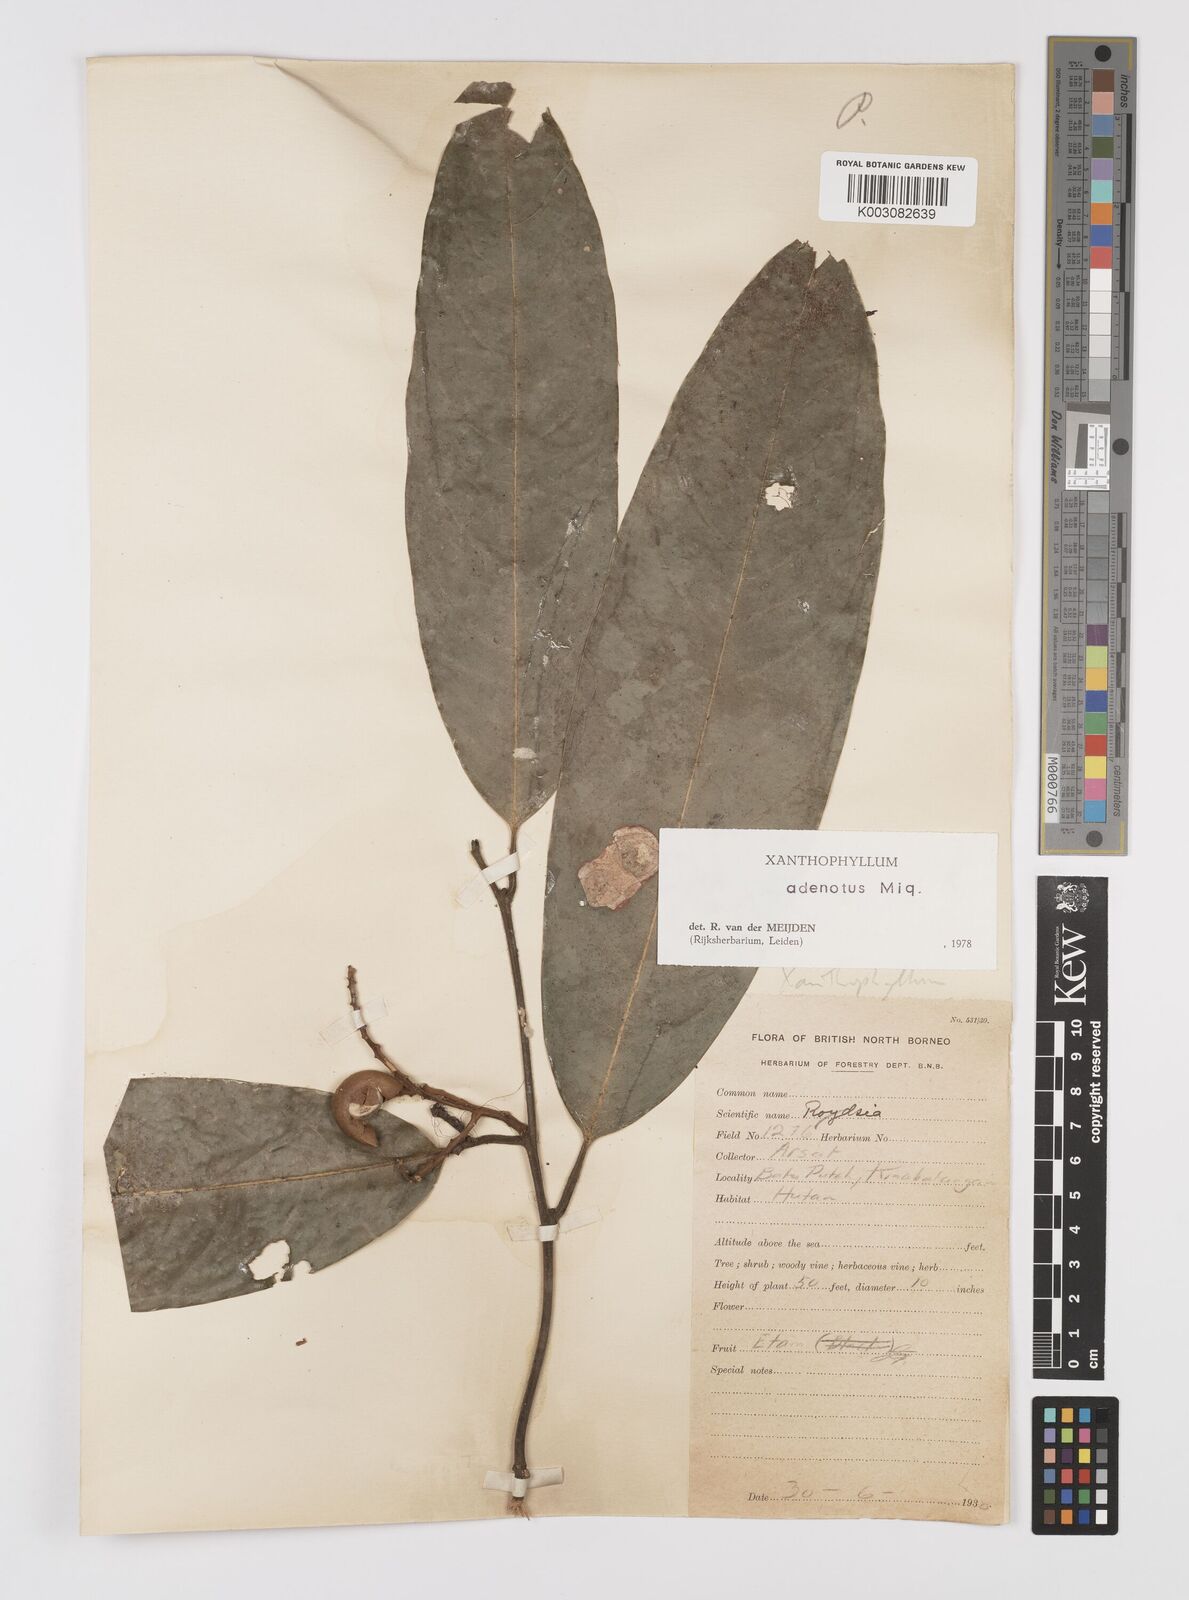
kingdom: Plantae
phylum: Tracheophyta
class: Magnoliopsida
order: Fabales
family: Polygalaceae
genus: Xanthophyllum
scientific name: Xanthophyllum adenotus
